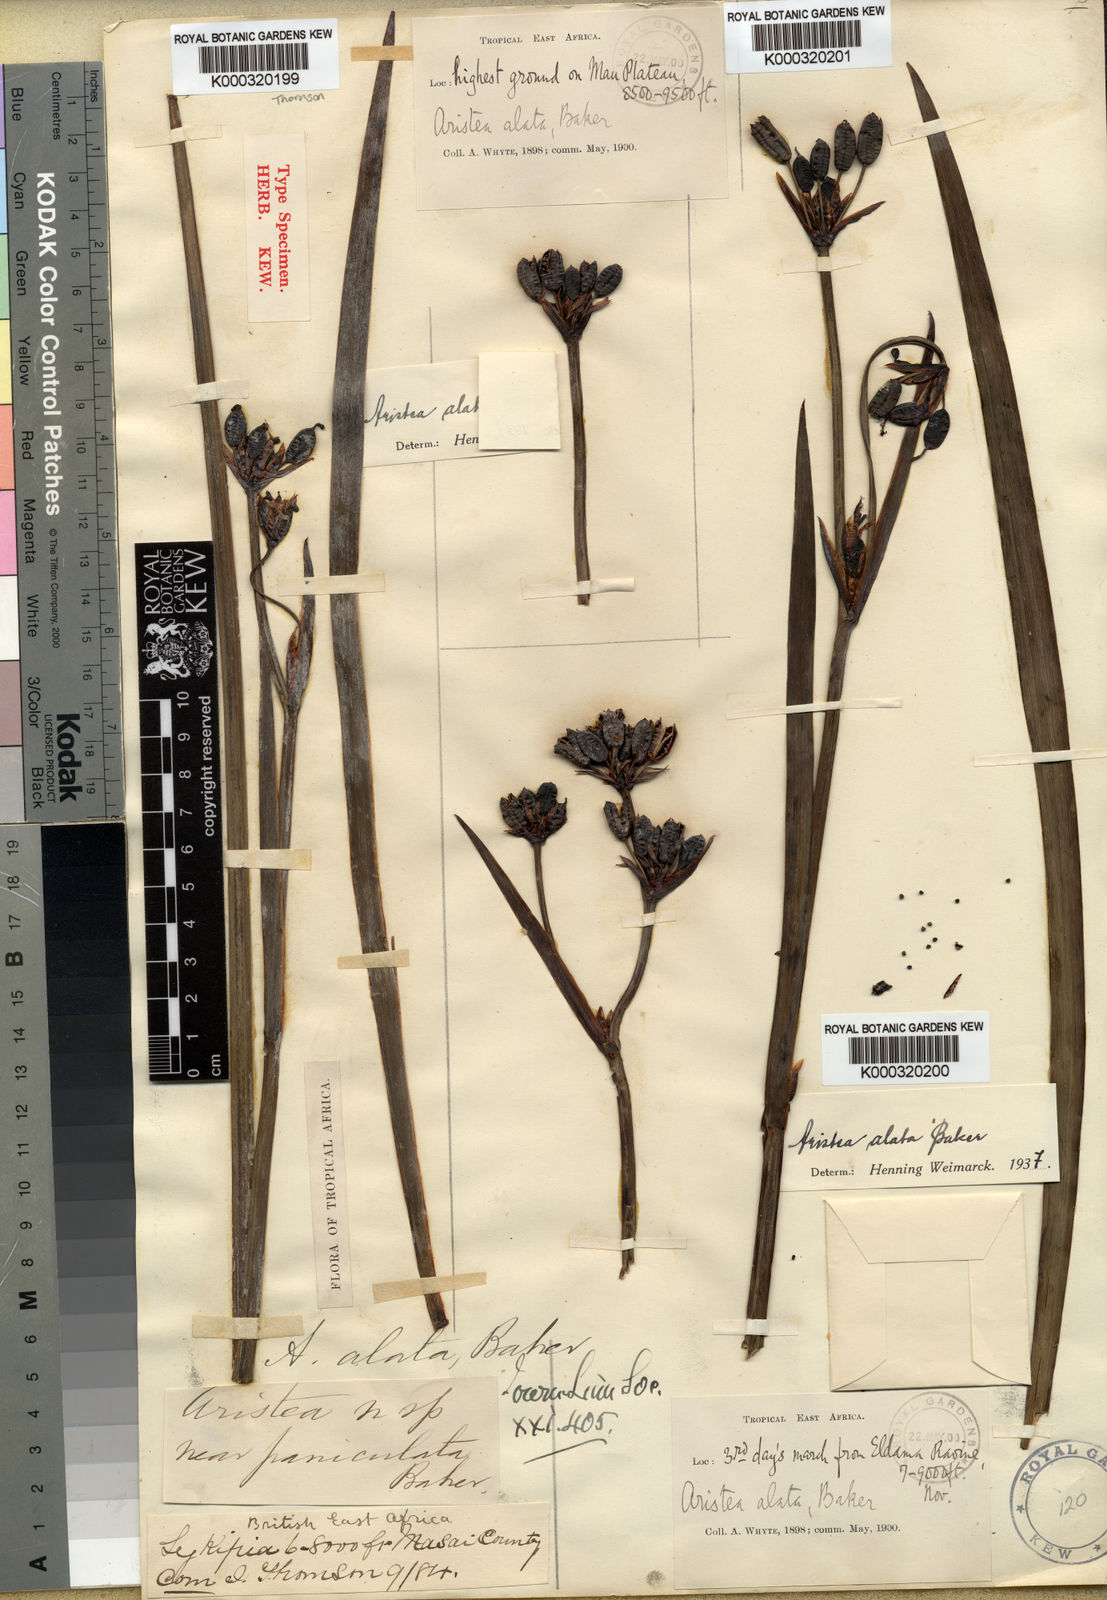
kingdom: Plantae
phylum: Tracheophyta
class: Liliopsida
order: Asparagales
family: Iridaceae
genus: Aristea
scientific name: Aristea alata
